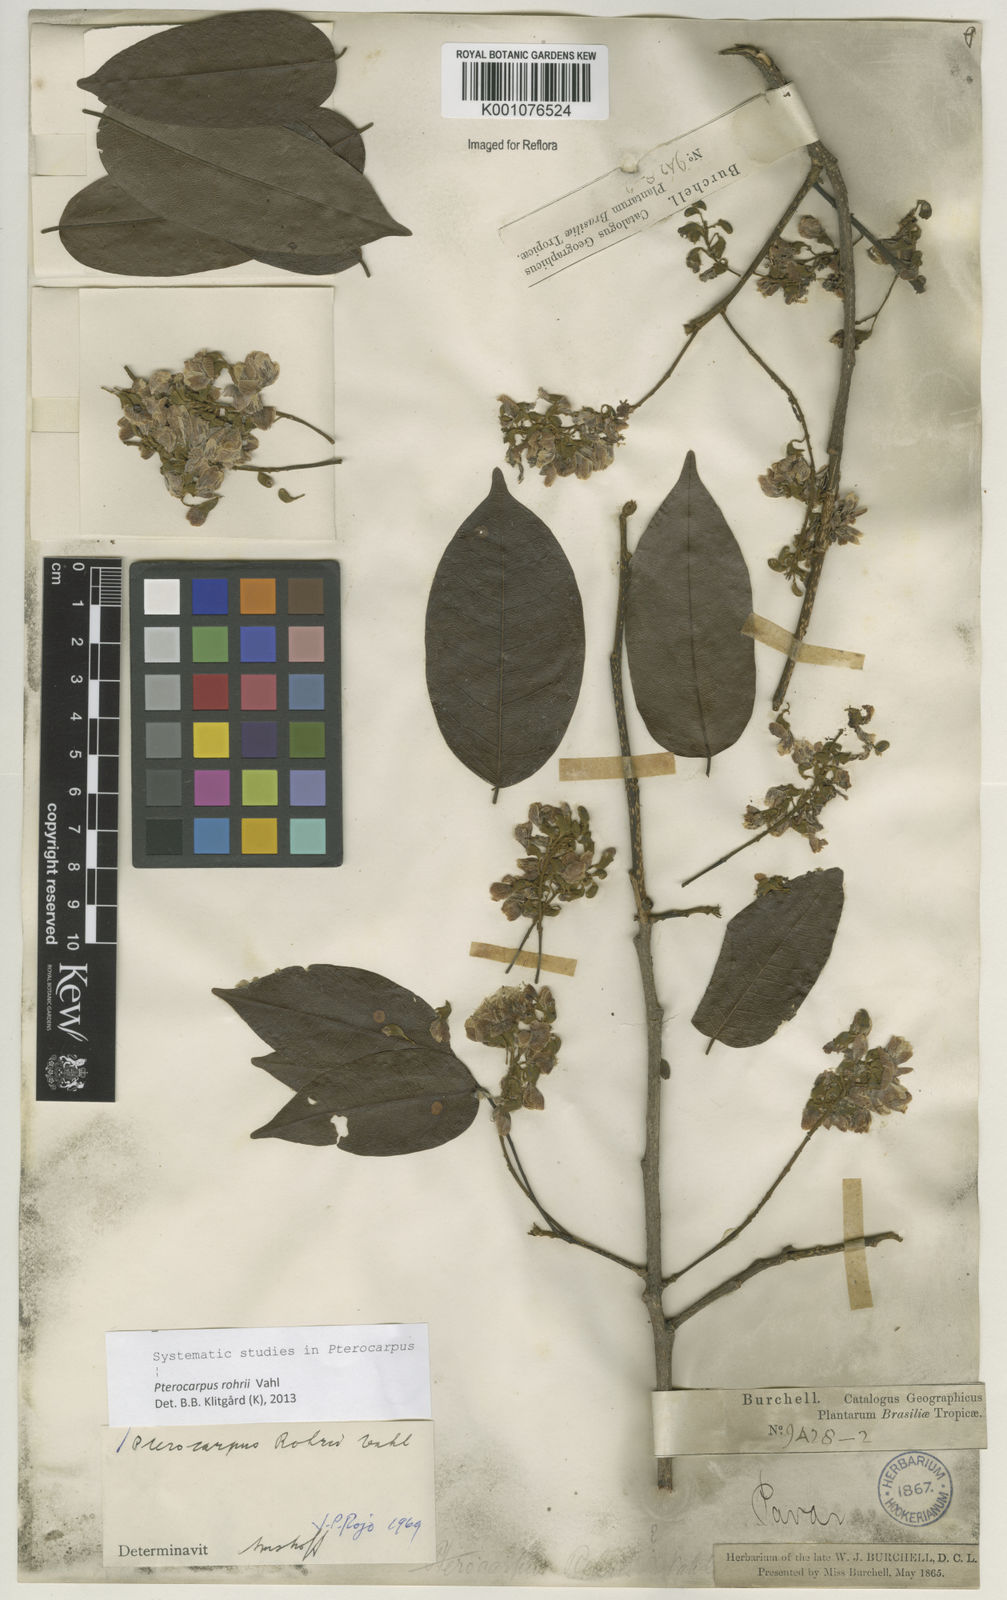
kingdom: Plantae
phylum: Tracheophyta
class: Magnoliopsida
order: Fabales
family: Fabaceae
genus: Pterocarpus
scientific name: Pterocarpus rohrii
